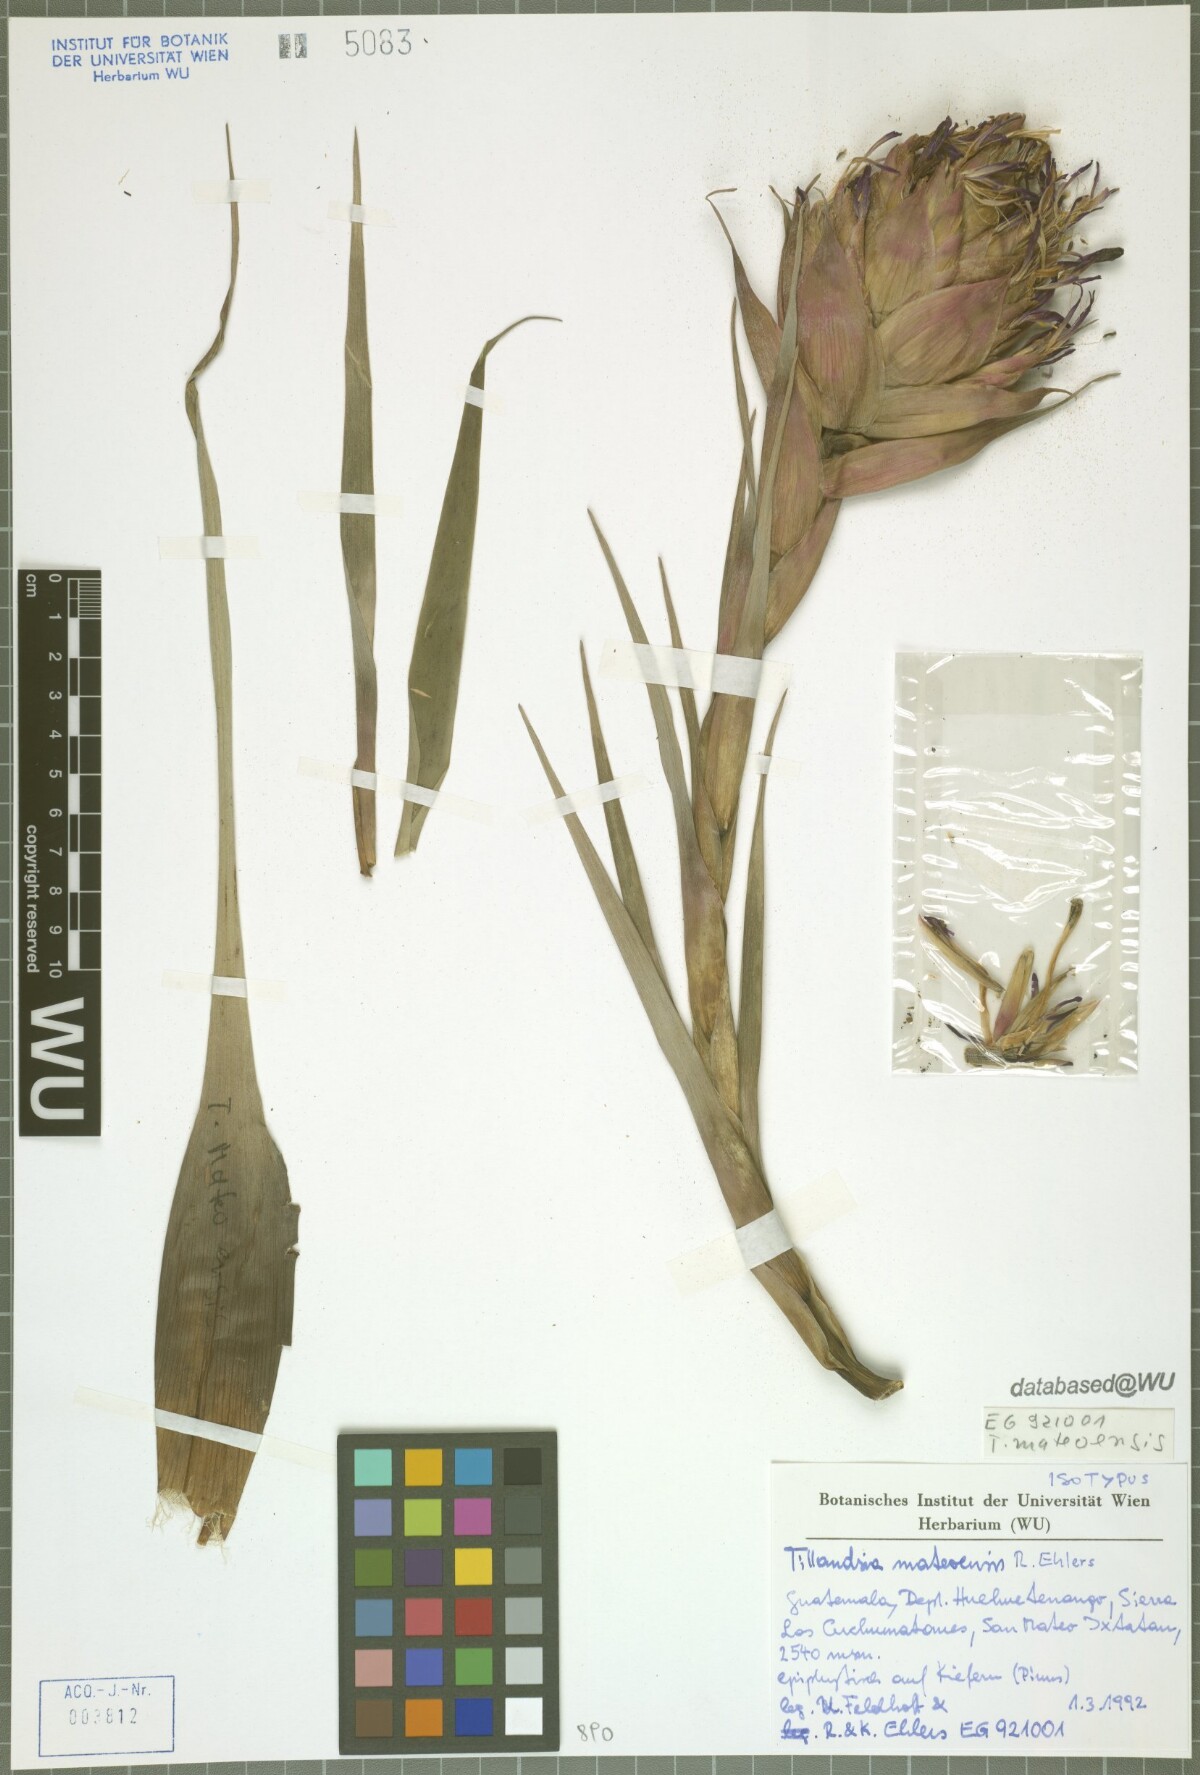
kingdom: Plantae
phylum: Tracheophyta
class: Liliopsida
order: Poales
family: Bromeliaceae
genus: Tillandsia
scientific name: Tillandsia mateoensis
